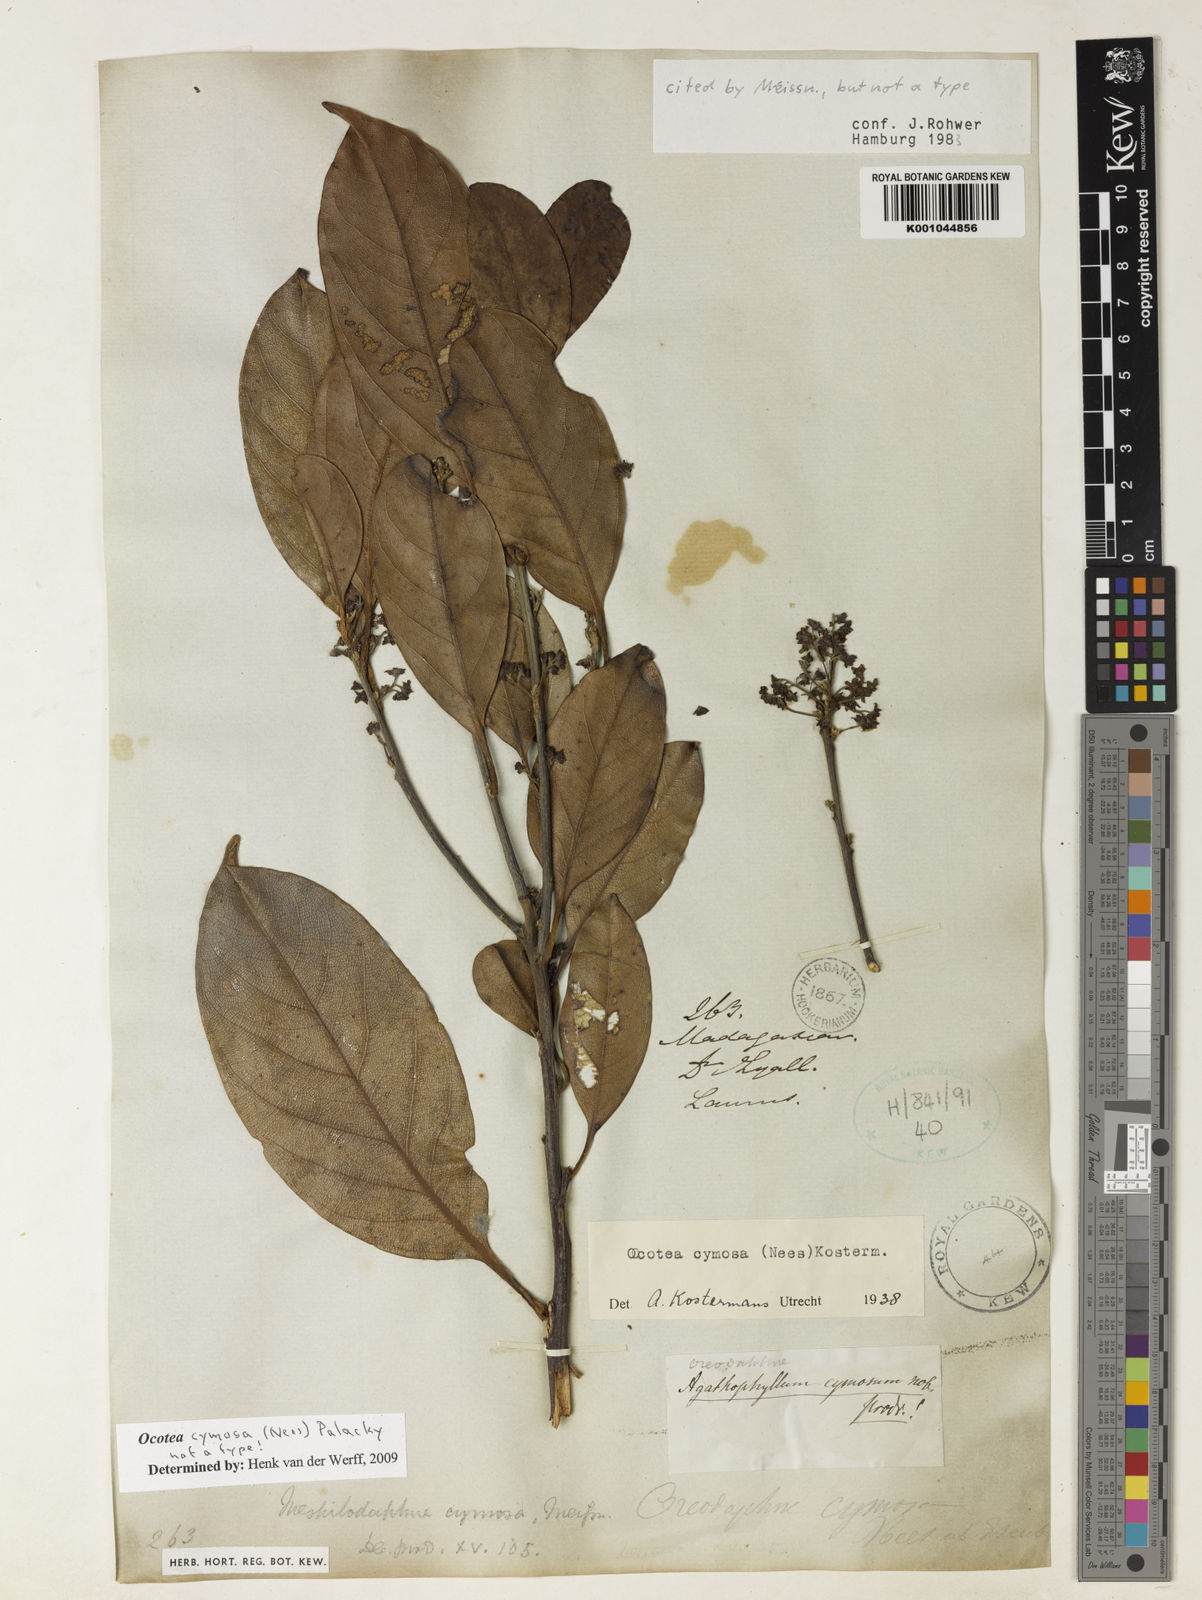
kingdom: Plantae
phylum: Tracheophyta
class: Magnoliopsida
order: Laurales
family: Lauraceae
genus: Mespilodaphne
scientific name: Mespilodaphne cymosa
